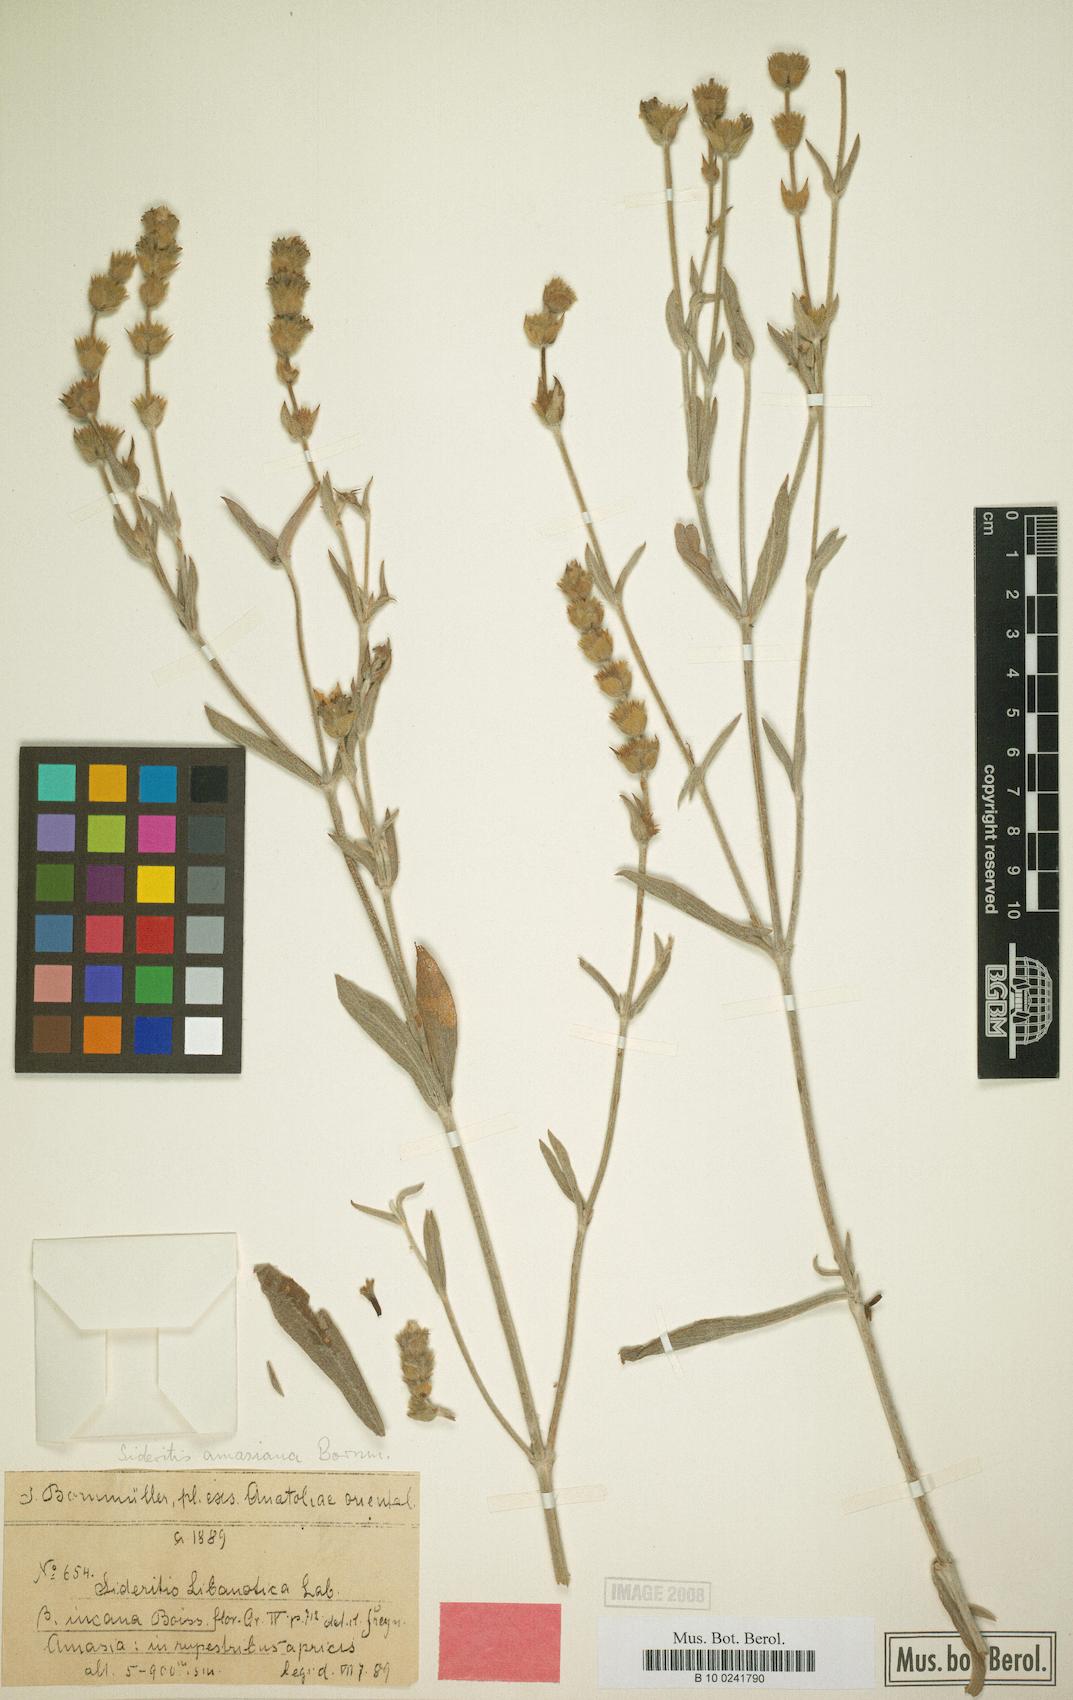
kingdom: Plantae
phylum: Tracheophyta
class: Magnoliopsida
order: Lamiales
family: Lamiaceae
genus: Sideritis
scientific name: Sideritis amasiaca
